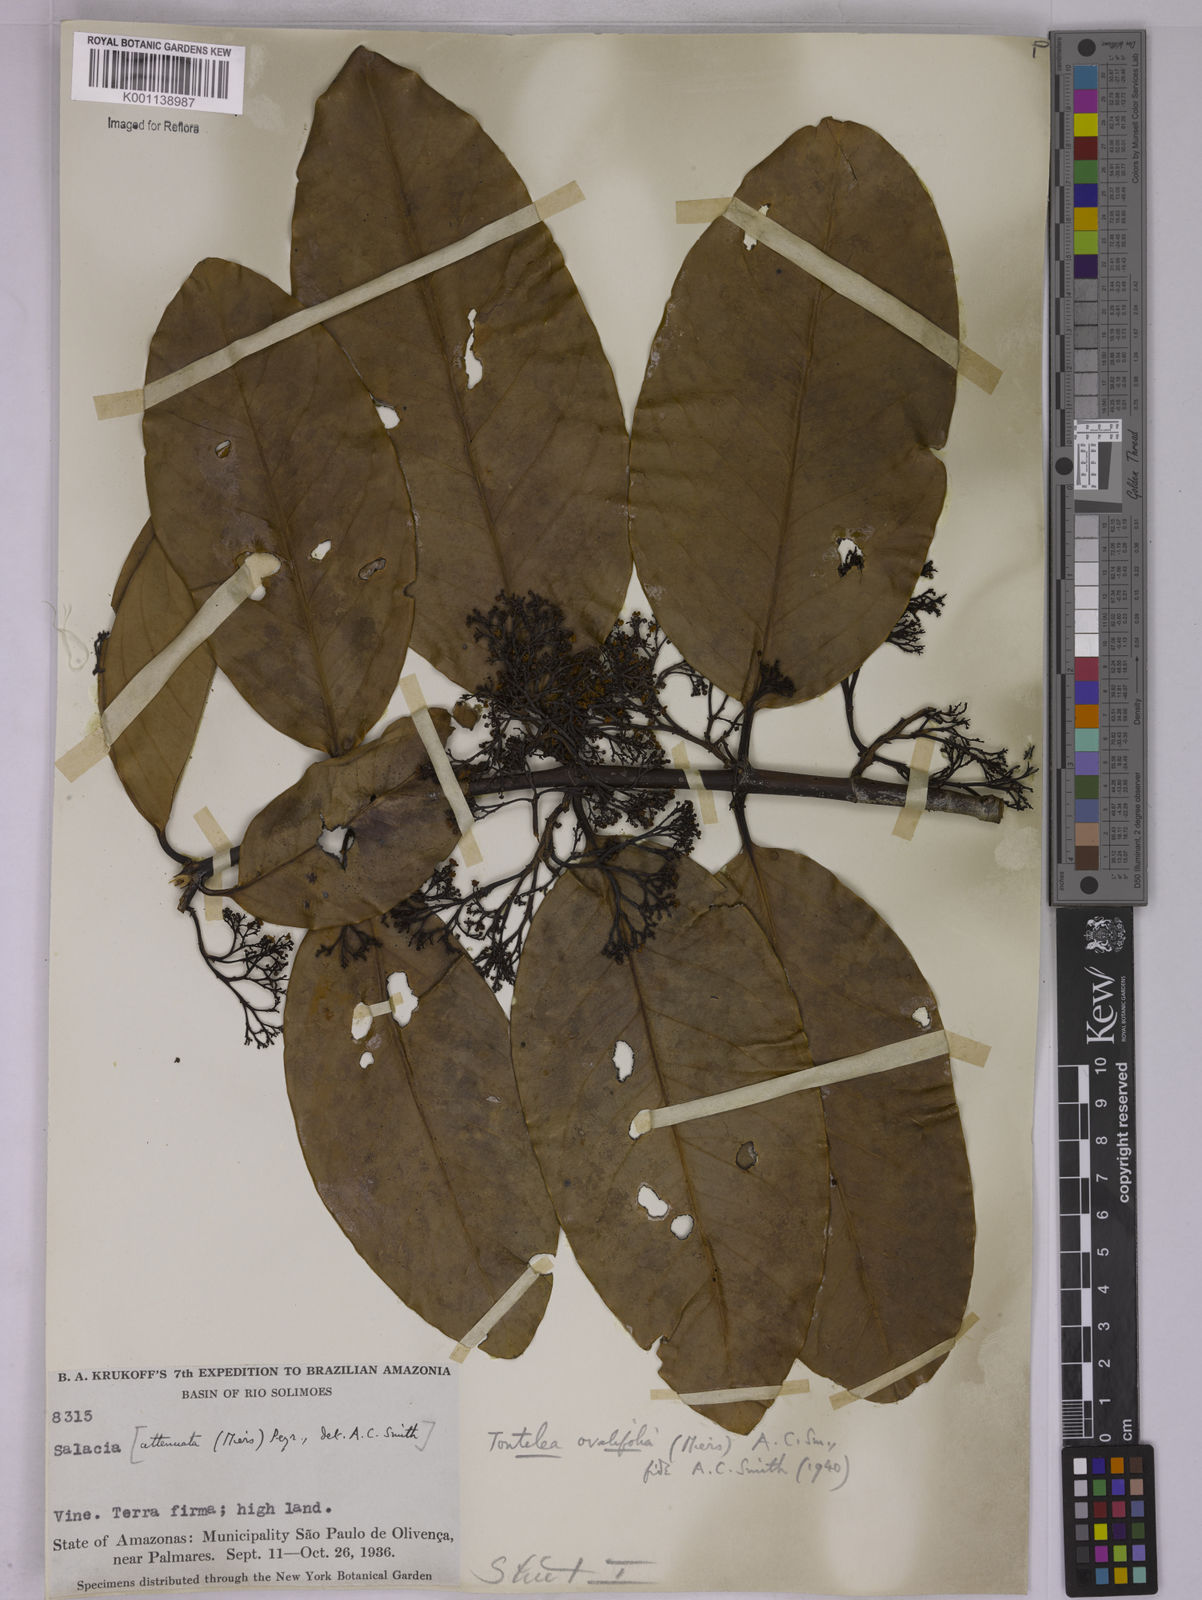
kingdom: Plantae
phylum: Tracheophyta
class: Magnoliopsida
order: Celastrales
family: Celastraceae
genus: Tontelea
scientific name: Tontelea passiflora
